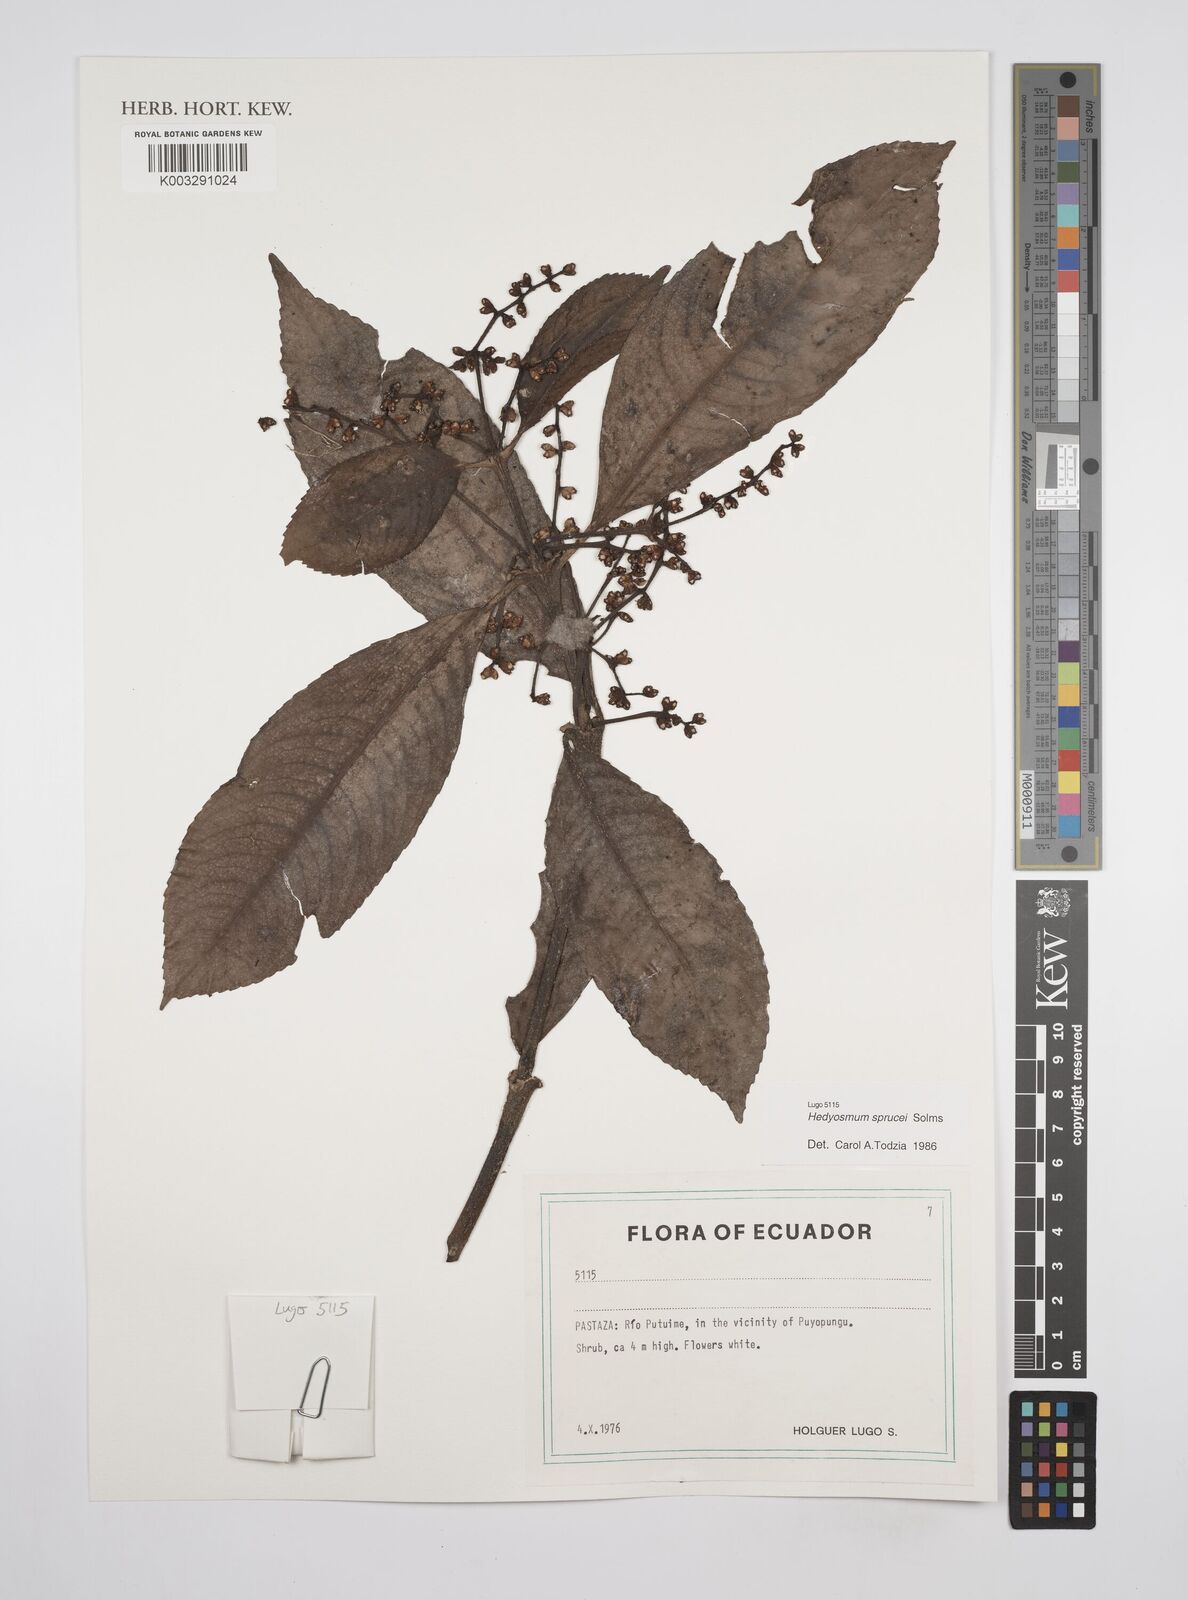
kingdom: Plantae
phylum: Tracheophyta
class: Magnoliopsida
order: Chloranthales
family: Chloranthaceae
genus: Hedyosmum
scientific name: Hedyosmum sprucei
